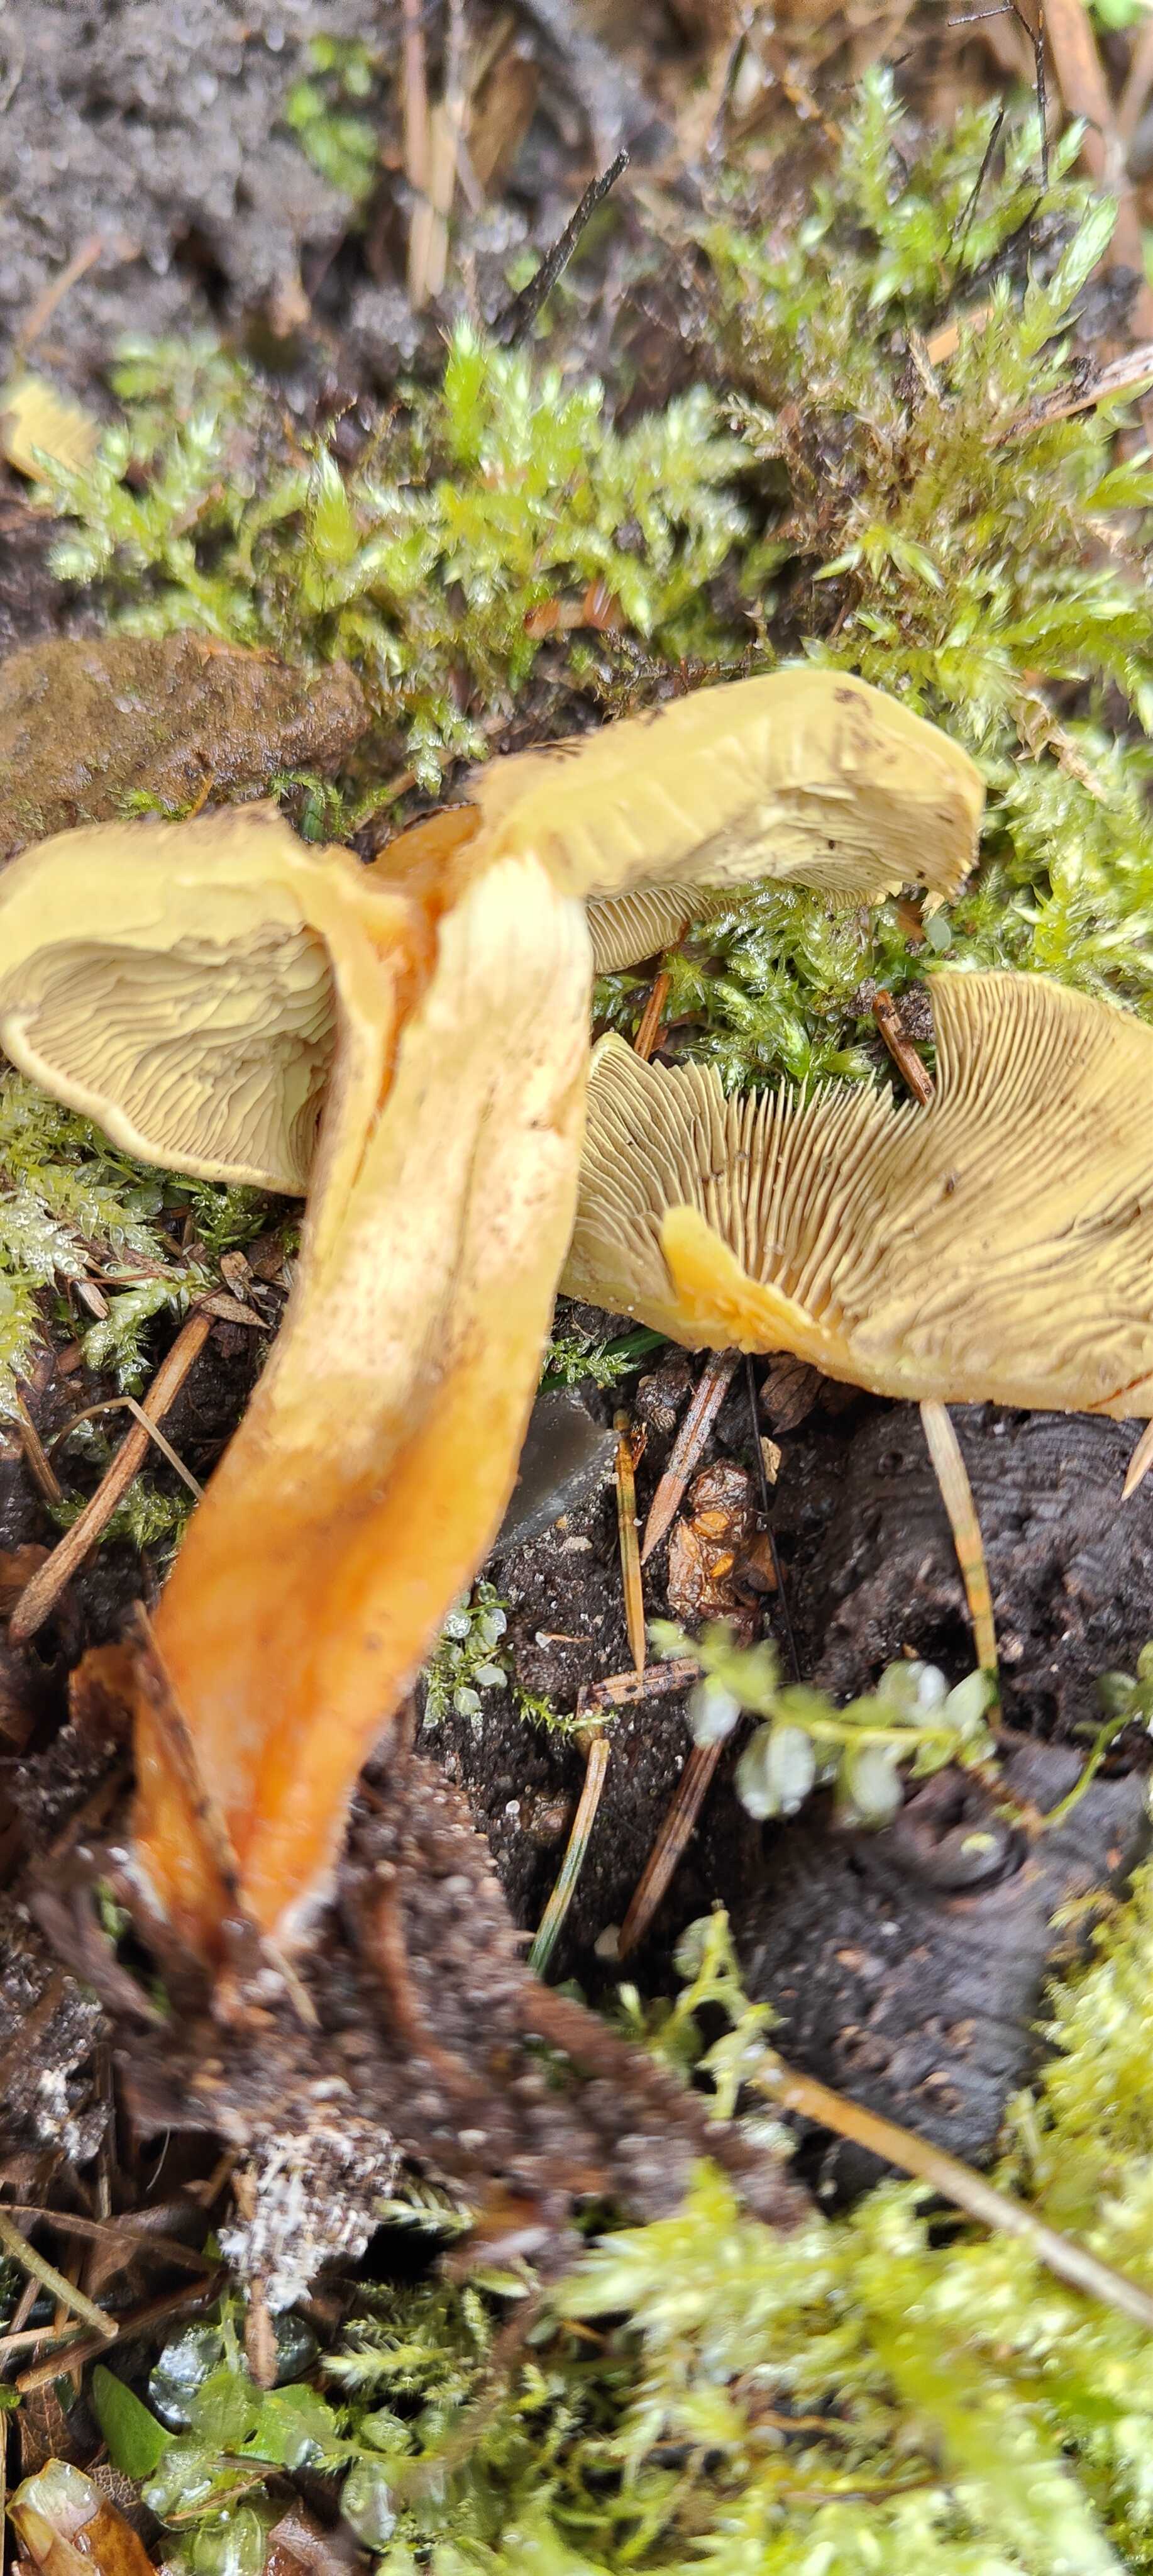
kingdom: Fungi
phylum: Basidiomycota
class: Agaricomycetes
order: Agaricales
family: Strophariaceae
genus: Hypholoma
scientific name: Hypholoma fasciculare
